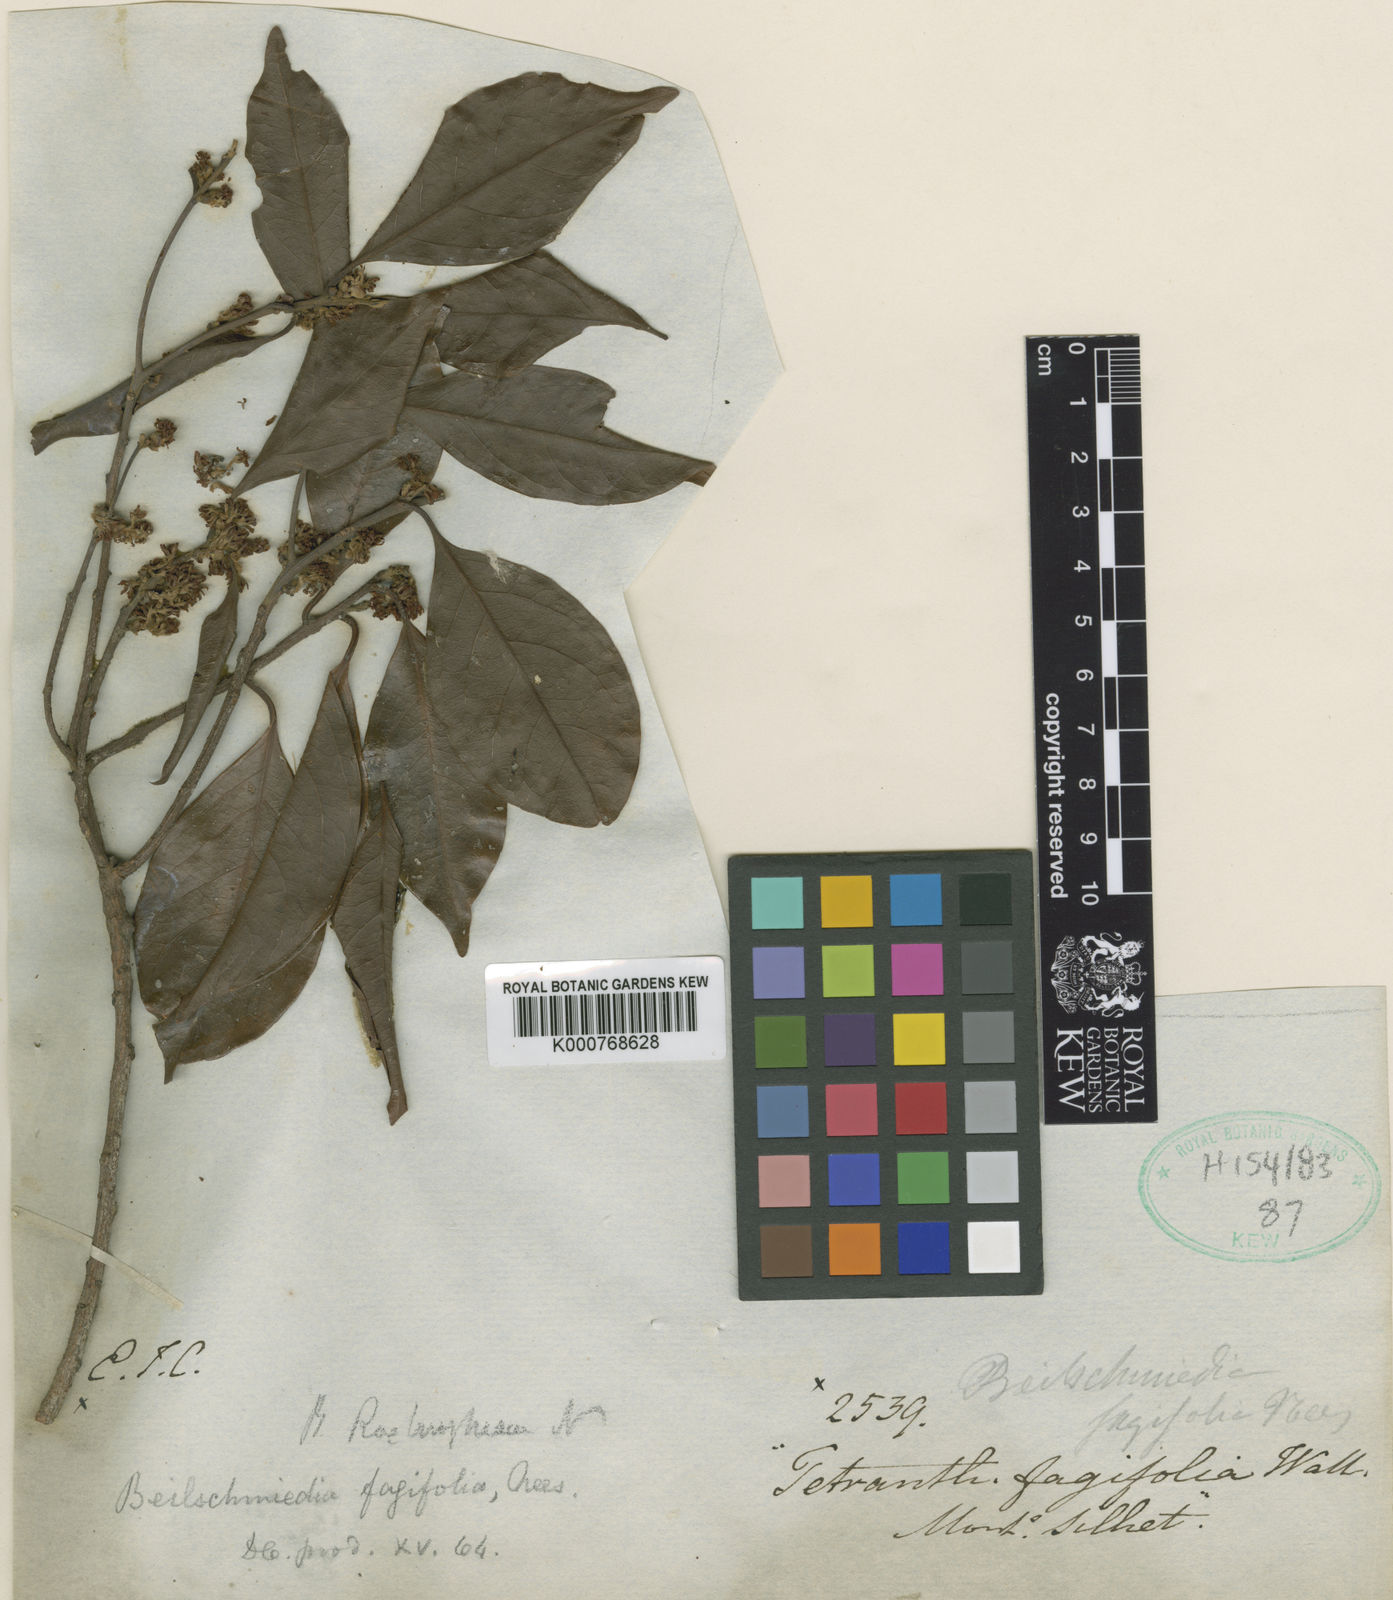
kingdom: Plantae
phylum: Tracheophyta
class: Magnoliopsida
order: Laurales
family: Lauraceae
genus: Beilschmiedia
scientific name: Beilschmiedia fagifolia
